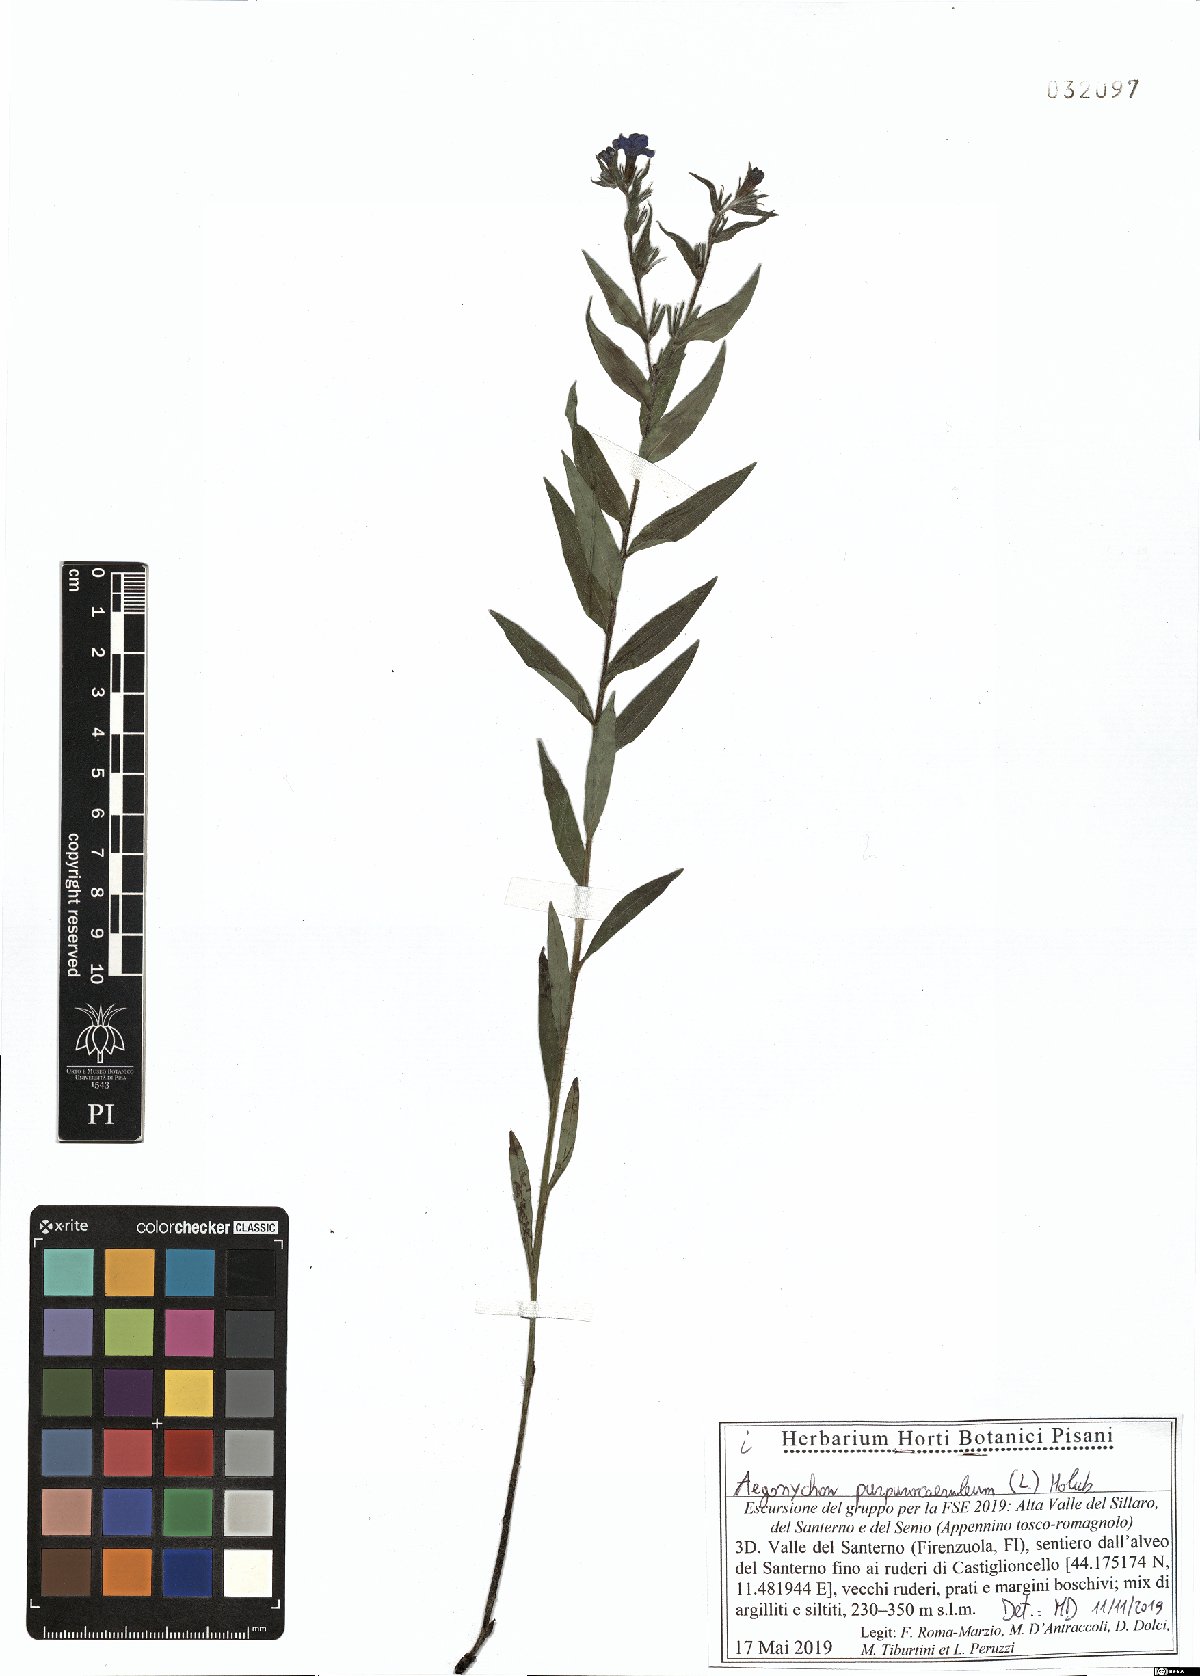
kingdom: Plantae
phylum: Tracheophyta
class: Magnoliopsida
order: Boraginales
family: Boraginaceae
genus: Aegonychon
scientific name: Aegonychon purpurocaeruleum
